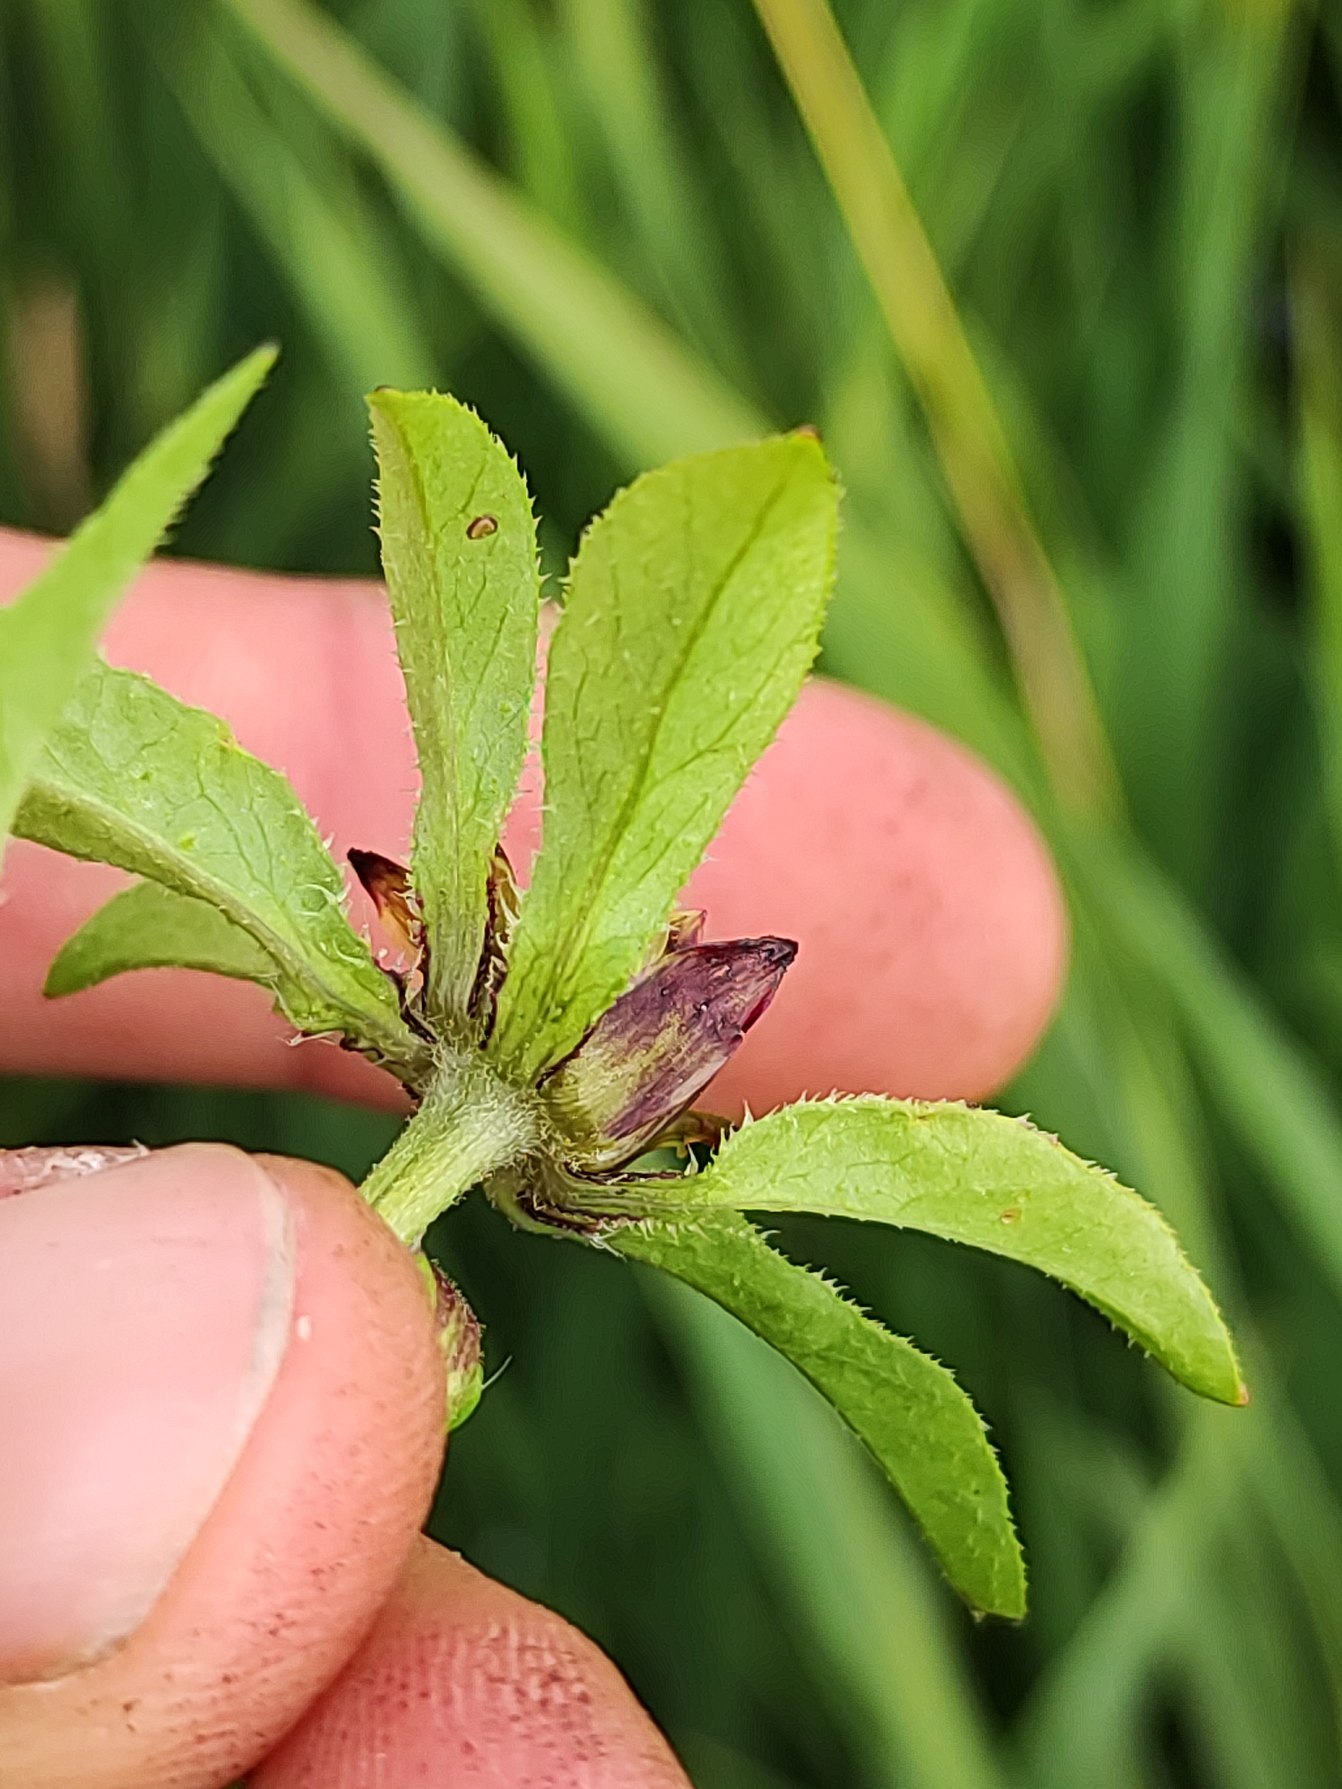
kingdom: Plantae
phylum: Tracheophyta
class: Magnoliopsida
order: Asterales
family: Asteraceae
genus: Bidens
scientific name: Bidens tripartita
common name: Fliget brøndsel
